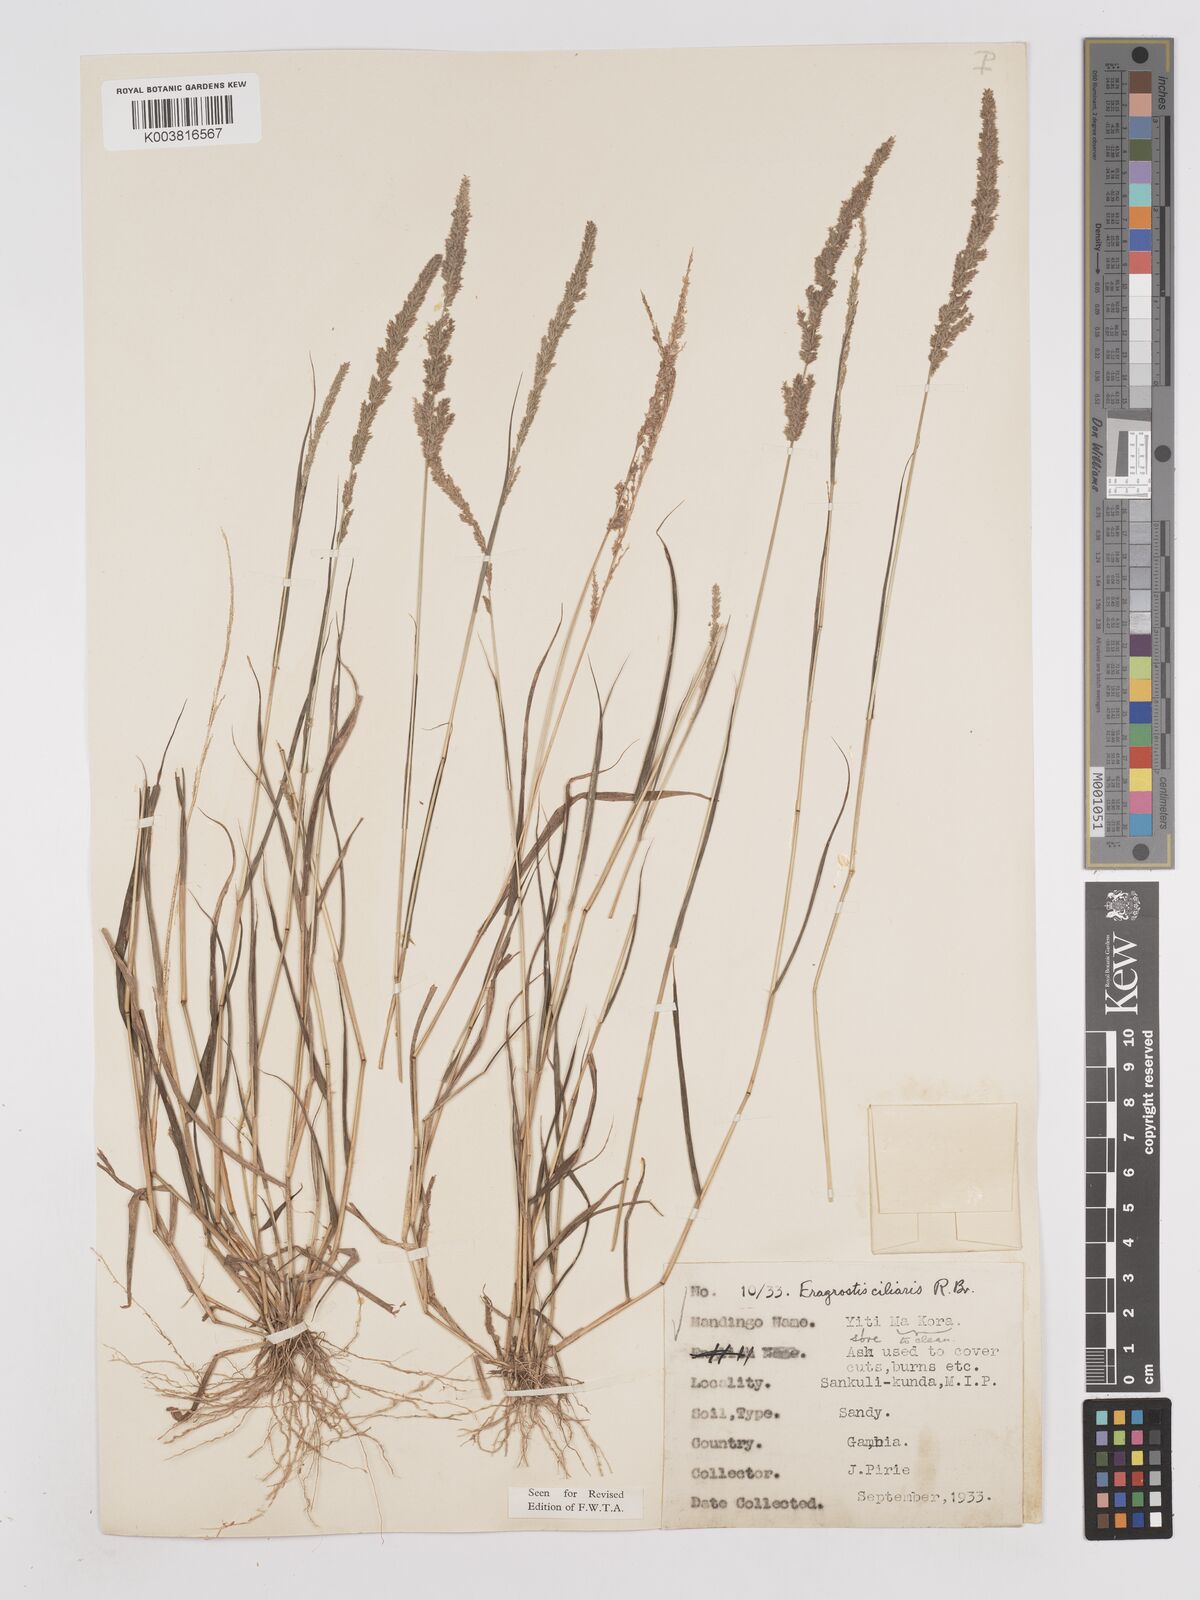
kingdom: Plantae
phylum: Tracheophyta
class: Liliopsida
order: Poales
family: Poaceae
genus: Eragrostis
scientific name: Eragrostis ciliaris
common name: Gophertail lovegrass
